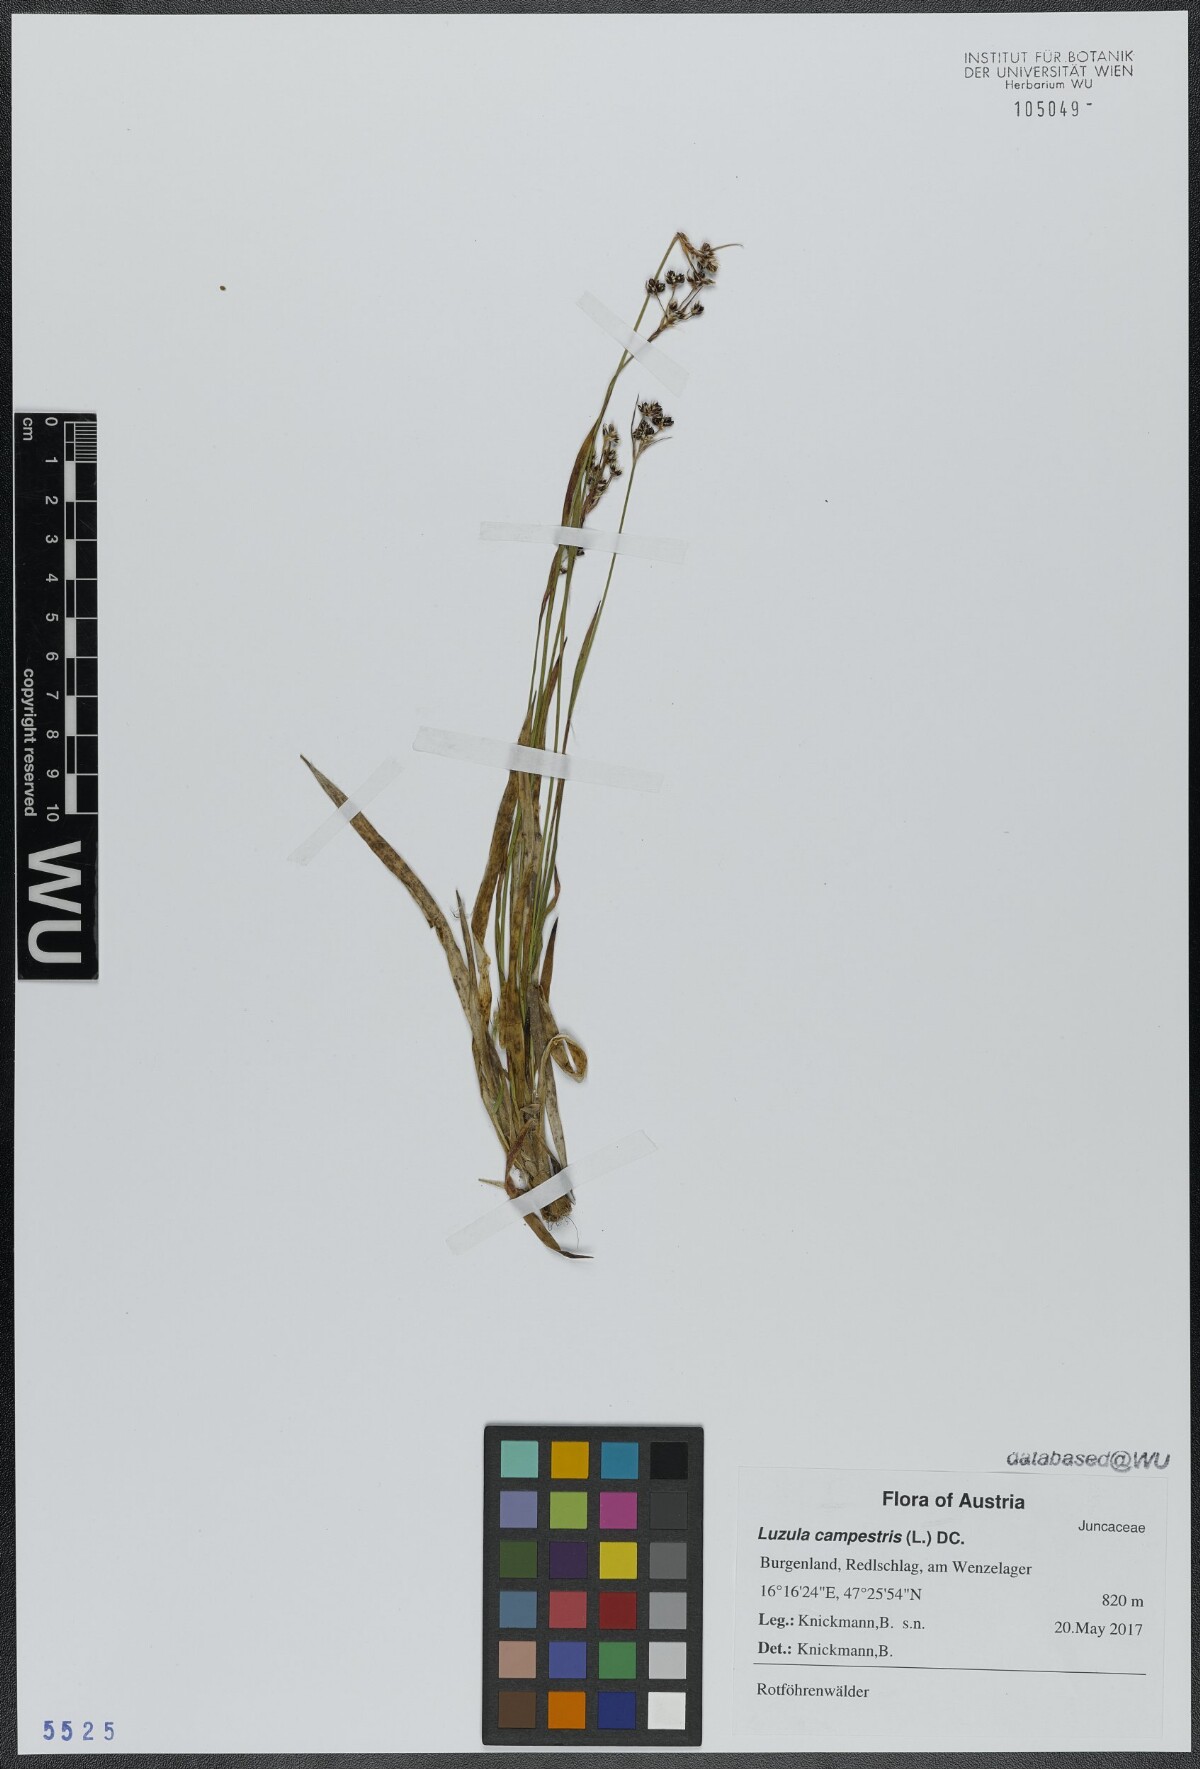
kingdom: Plantae
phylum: Tracheophyta
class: Liliopsida
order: Poales
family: Juncaceae
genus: Luzula
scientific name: Luzula campestris
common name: Field wood-rush
